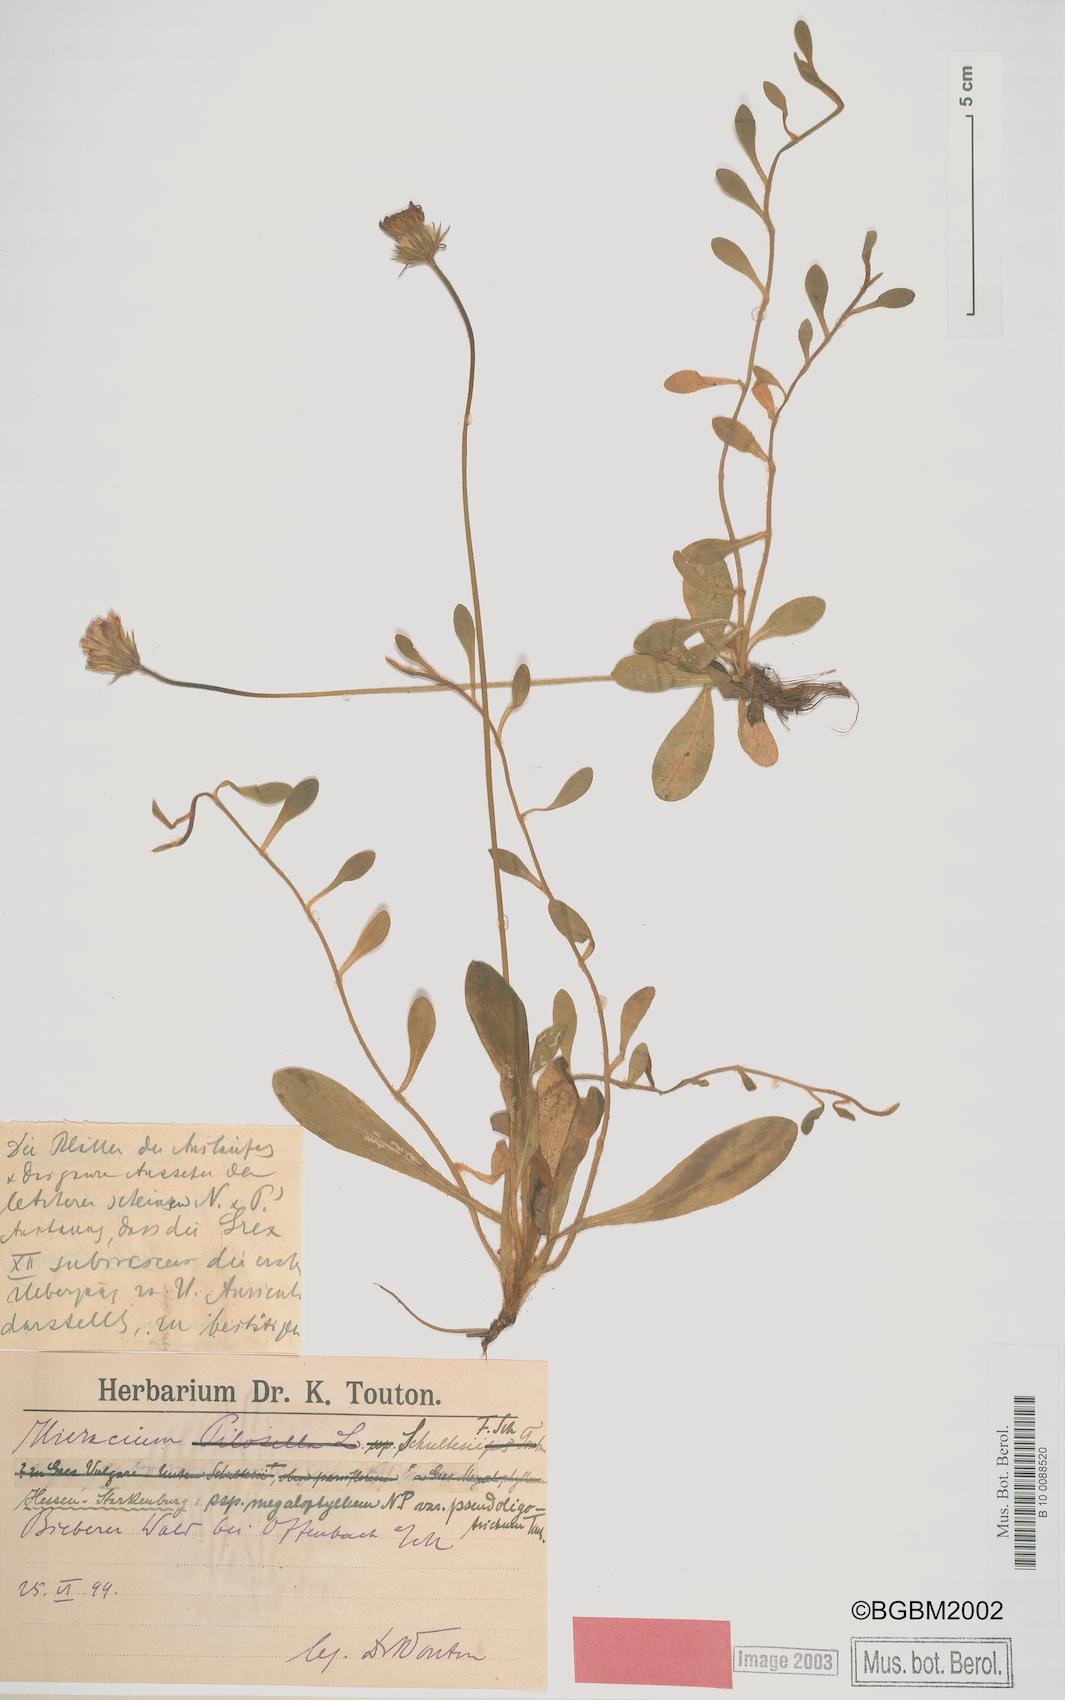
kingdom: Plantae
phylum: Tracheophyta
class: Magnoliopsida
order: Asterales
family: Asteraceae
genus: Pilosella
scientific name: Pilosella schultesii
